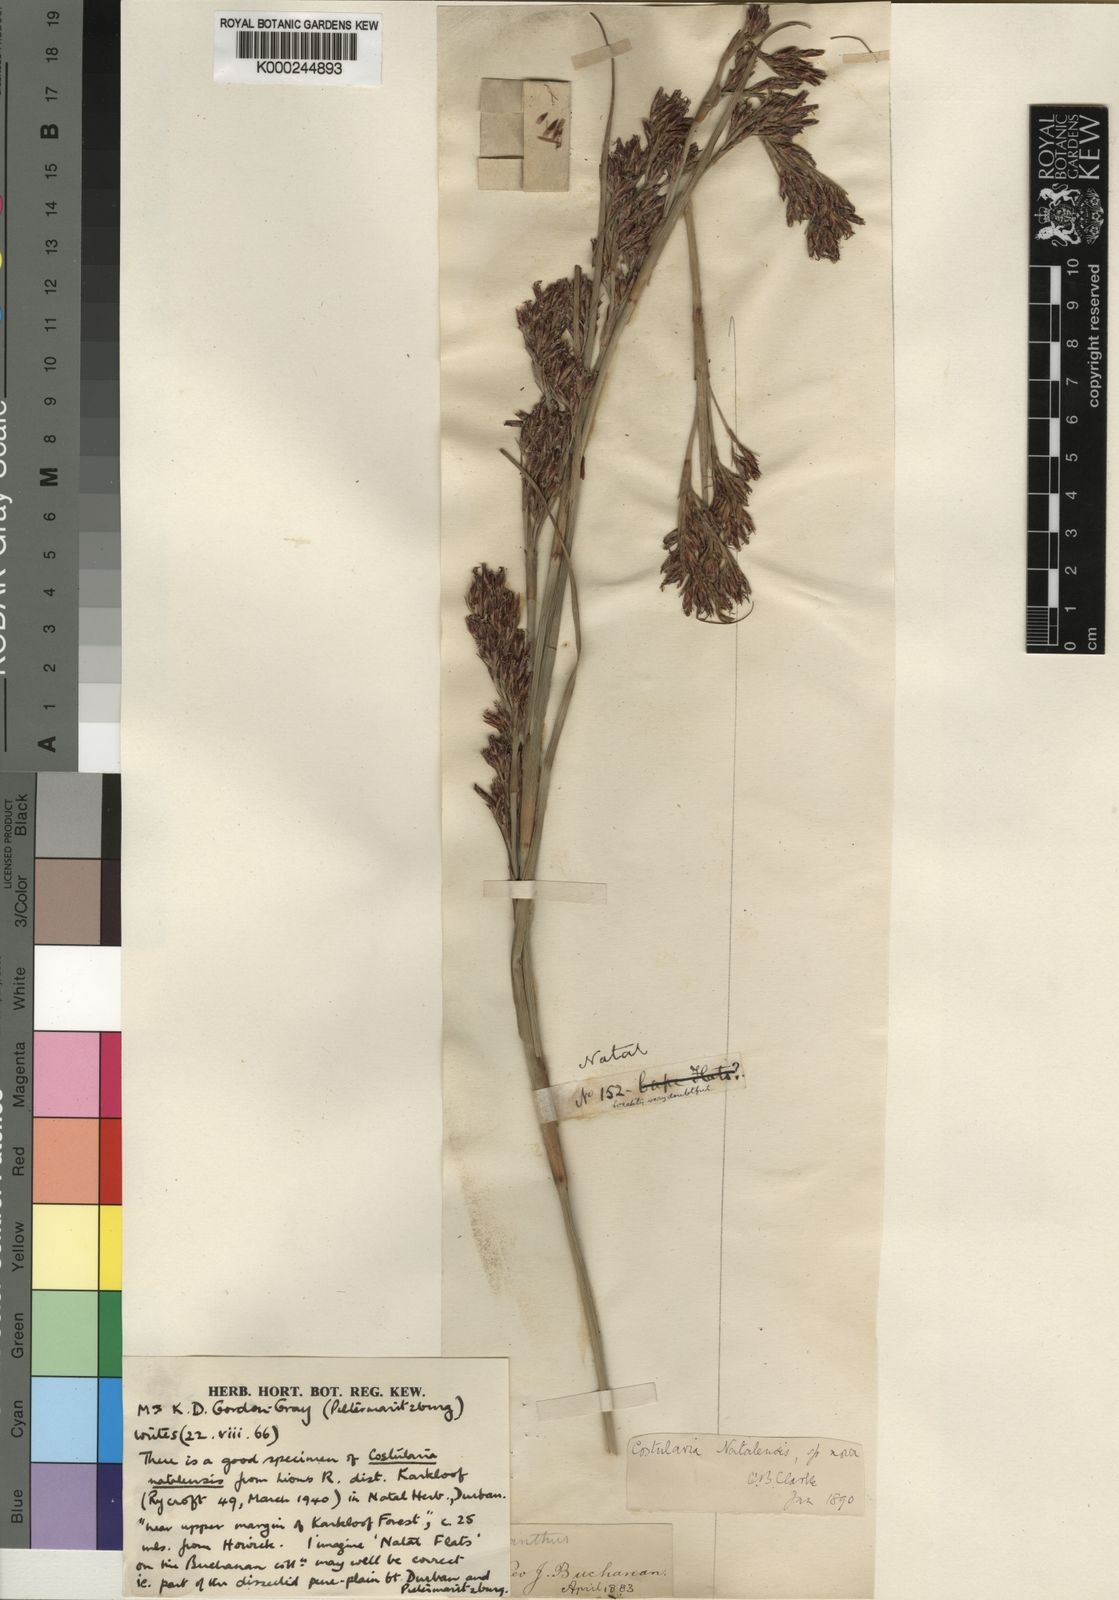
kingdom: Plantae
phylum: Tracheophyta
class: Liliopsida
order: Poales
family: Cyperaceae
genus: Costularia
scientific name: Costularia natalensis
